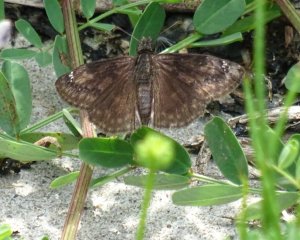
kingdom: Animalia
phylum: Arthropoda
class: Insecta
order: Lepidoptera
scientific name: Lepidoptera
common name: Butterflies
